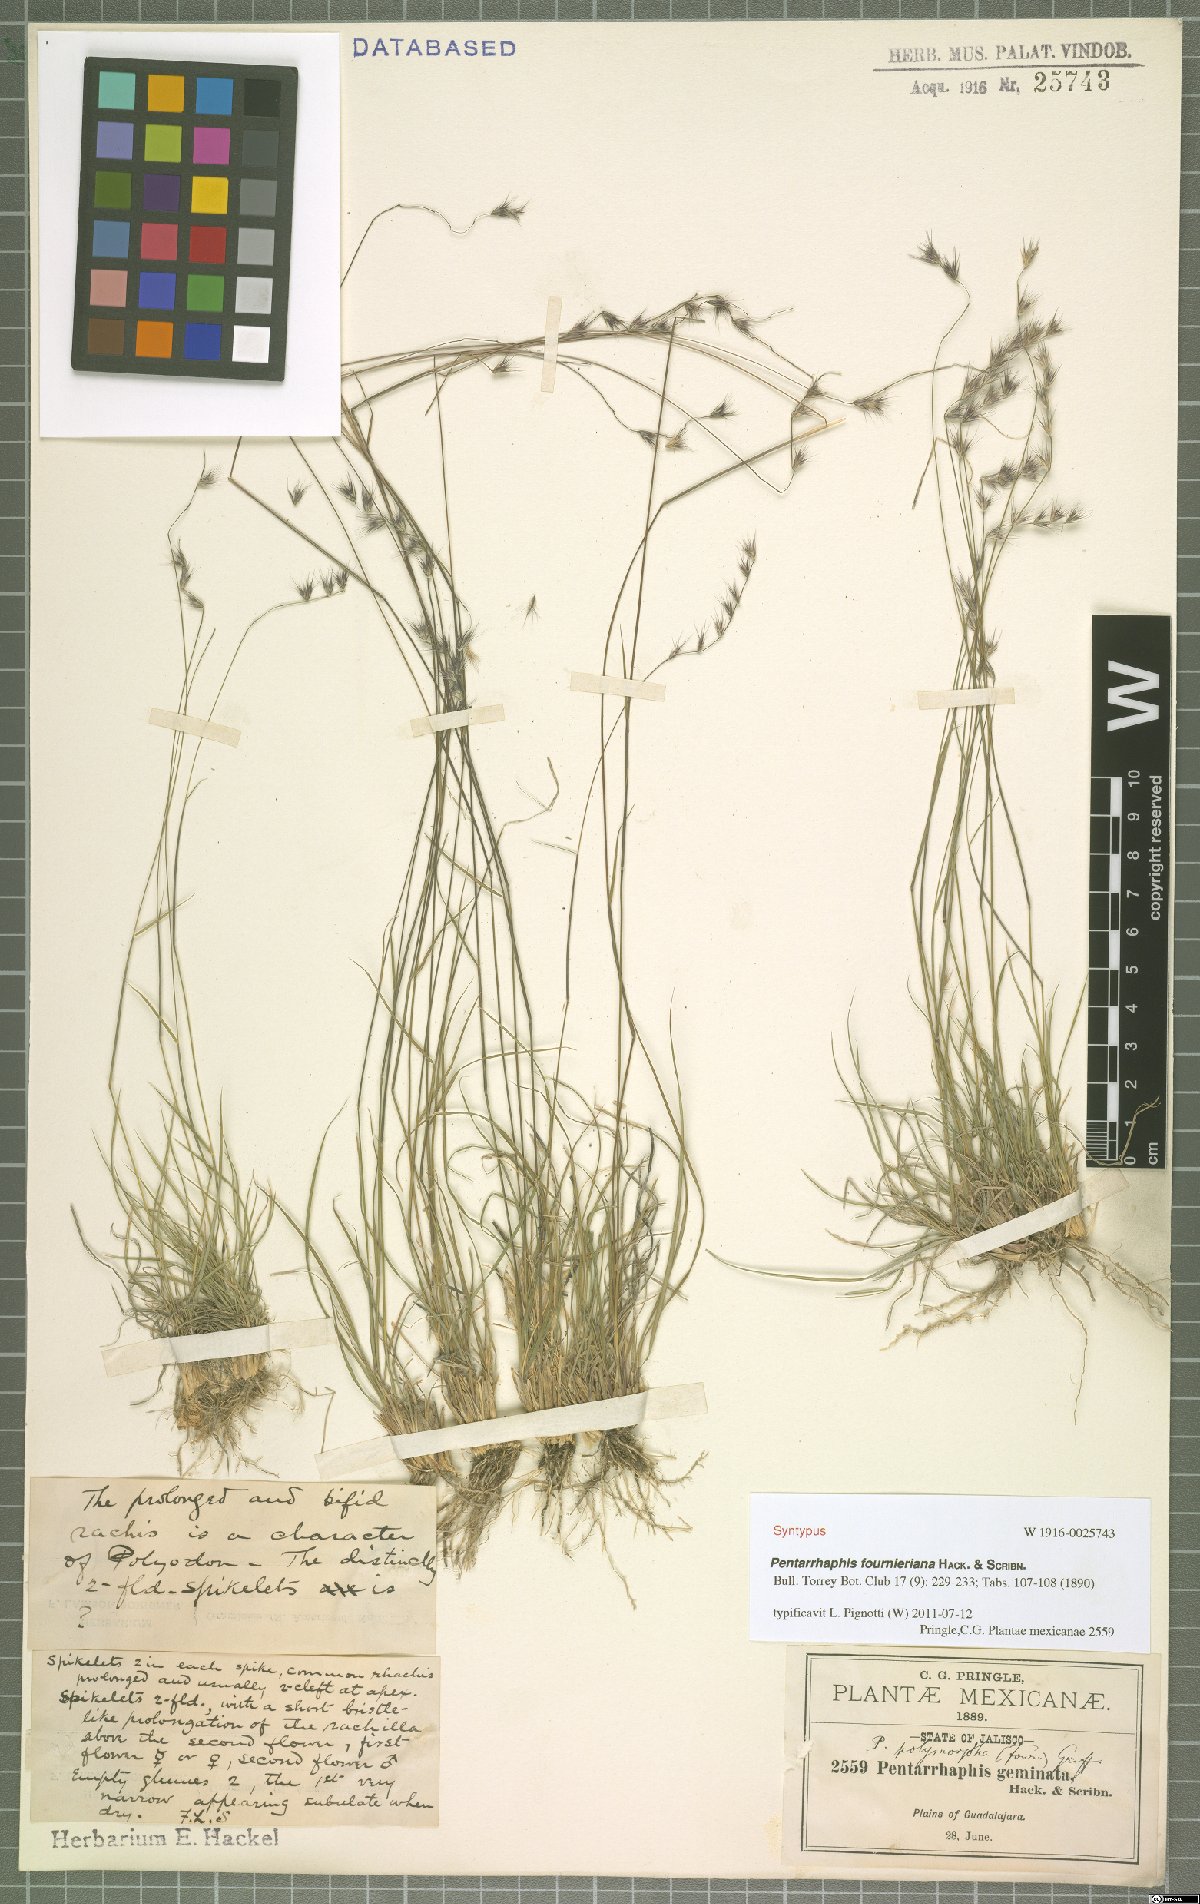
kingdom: Plantae
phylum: Tracheophyta
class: Liliopsida
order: Poales
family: Poaceae
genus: Bouteloua
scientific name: Bouteloua Pentarrhaphis fournieriana
